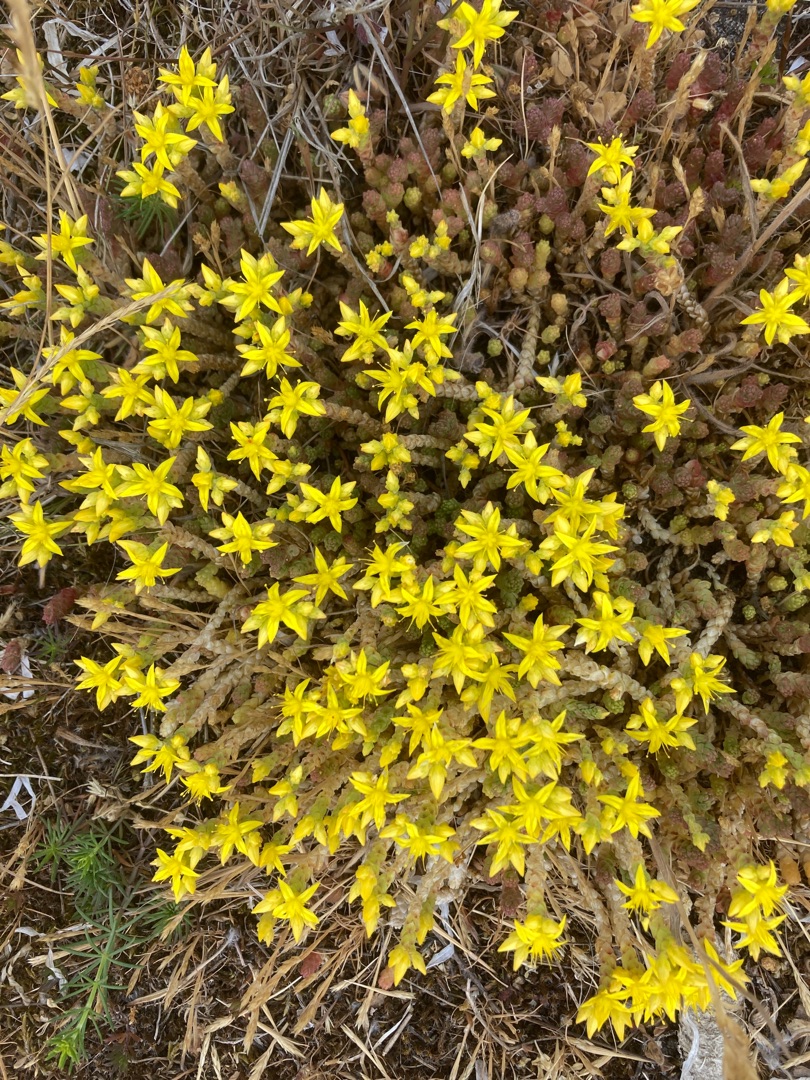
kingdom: Plantae
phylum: Tracheophyta
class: Magnoliopsida
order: Saxifragales
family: Crassulaceae
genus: Sedum
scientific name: Sedum acre
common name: Bidende stenurt
